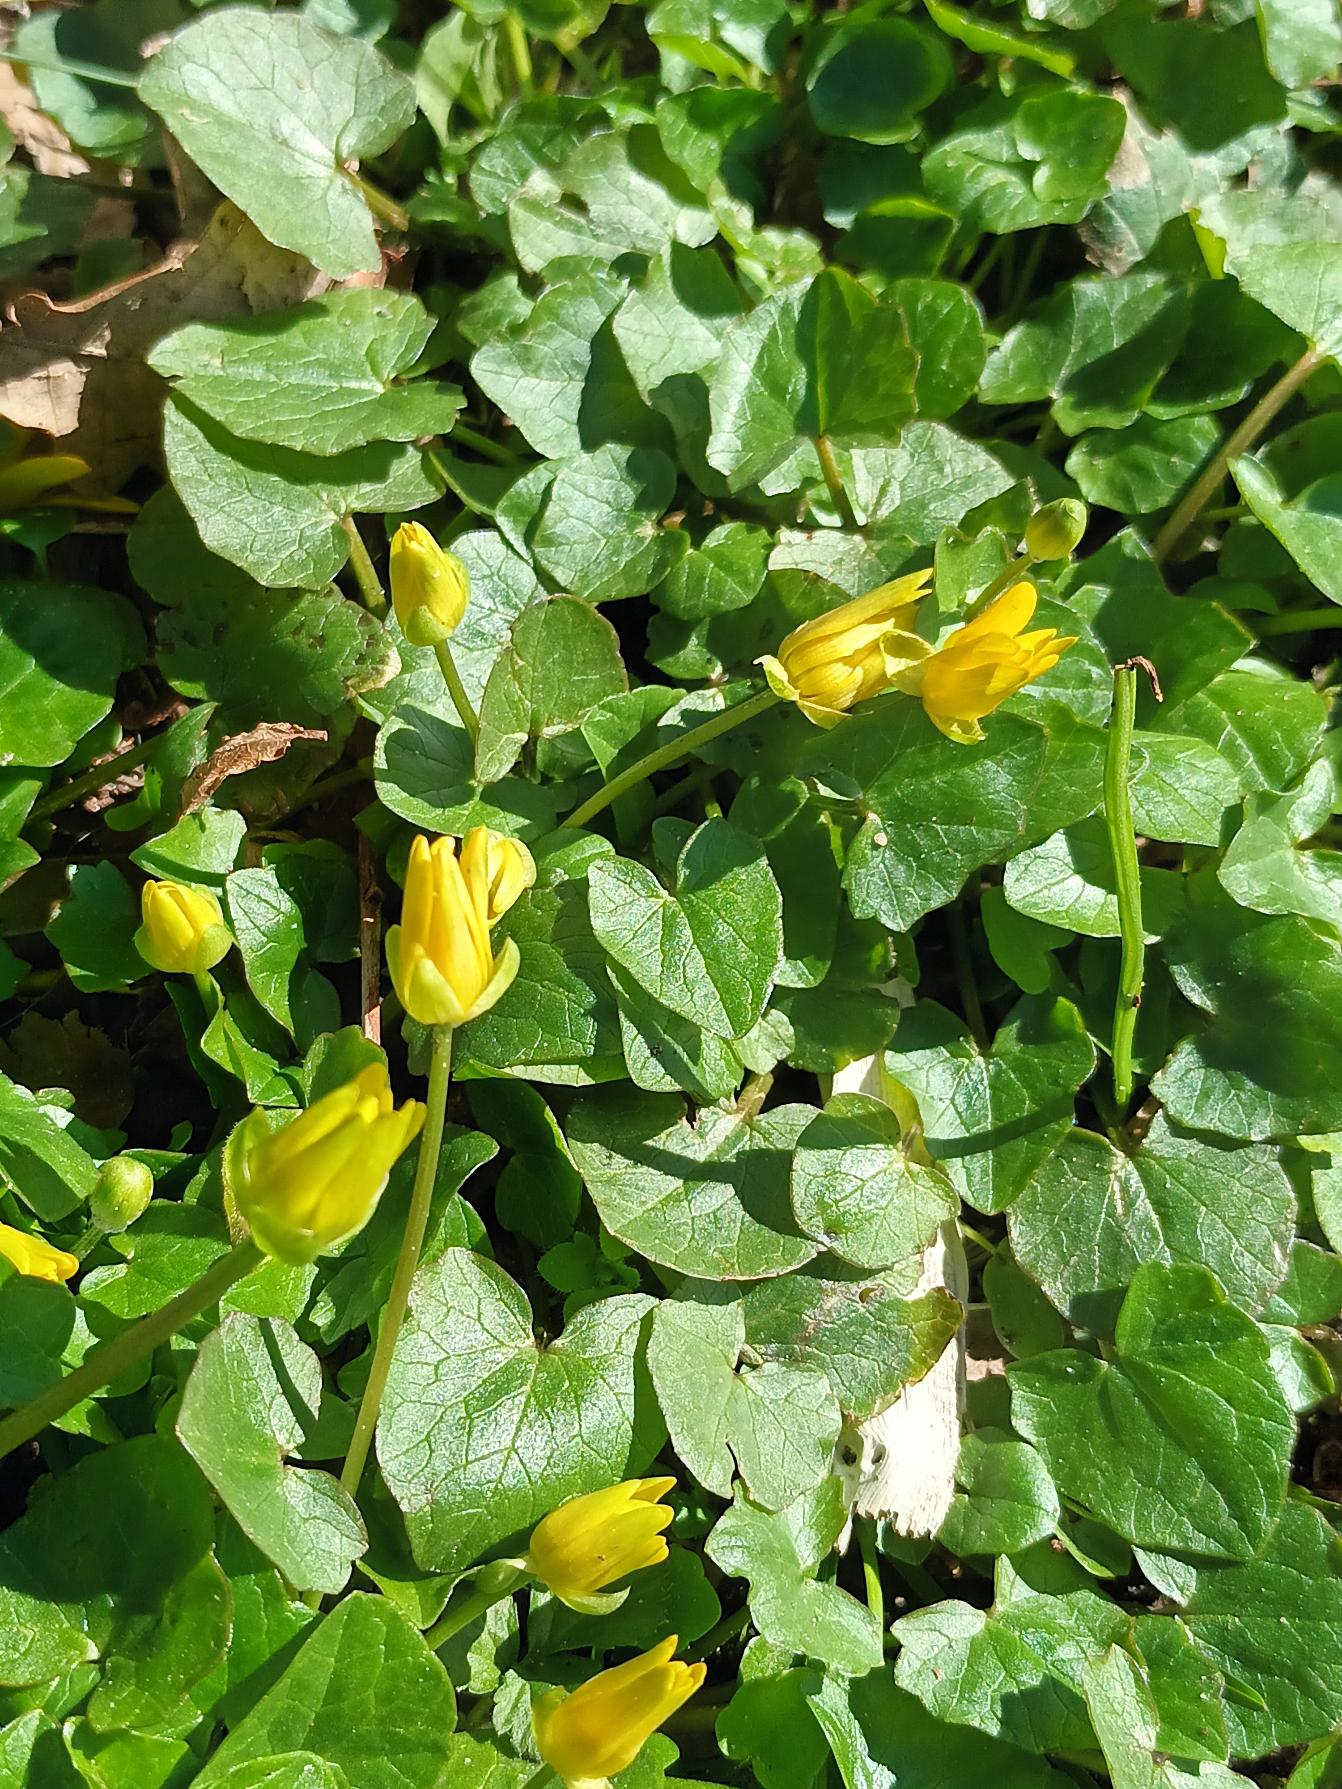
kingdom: Plantae
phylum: Tracheophyta
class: Magnoliopsida
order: Ranunculales
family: Ranunculaceae
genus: Ficaria
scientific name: Ficaria verna
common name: Vorterod
